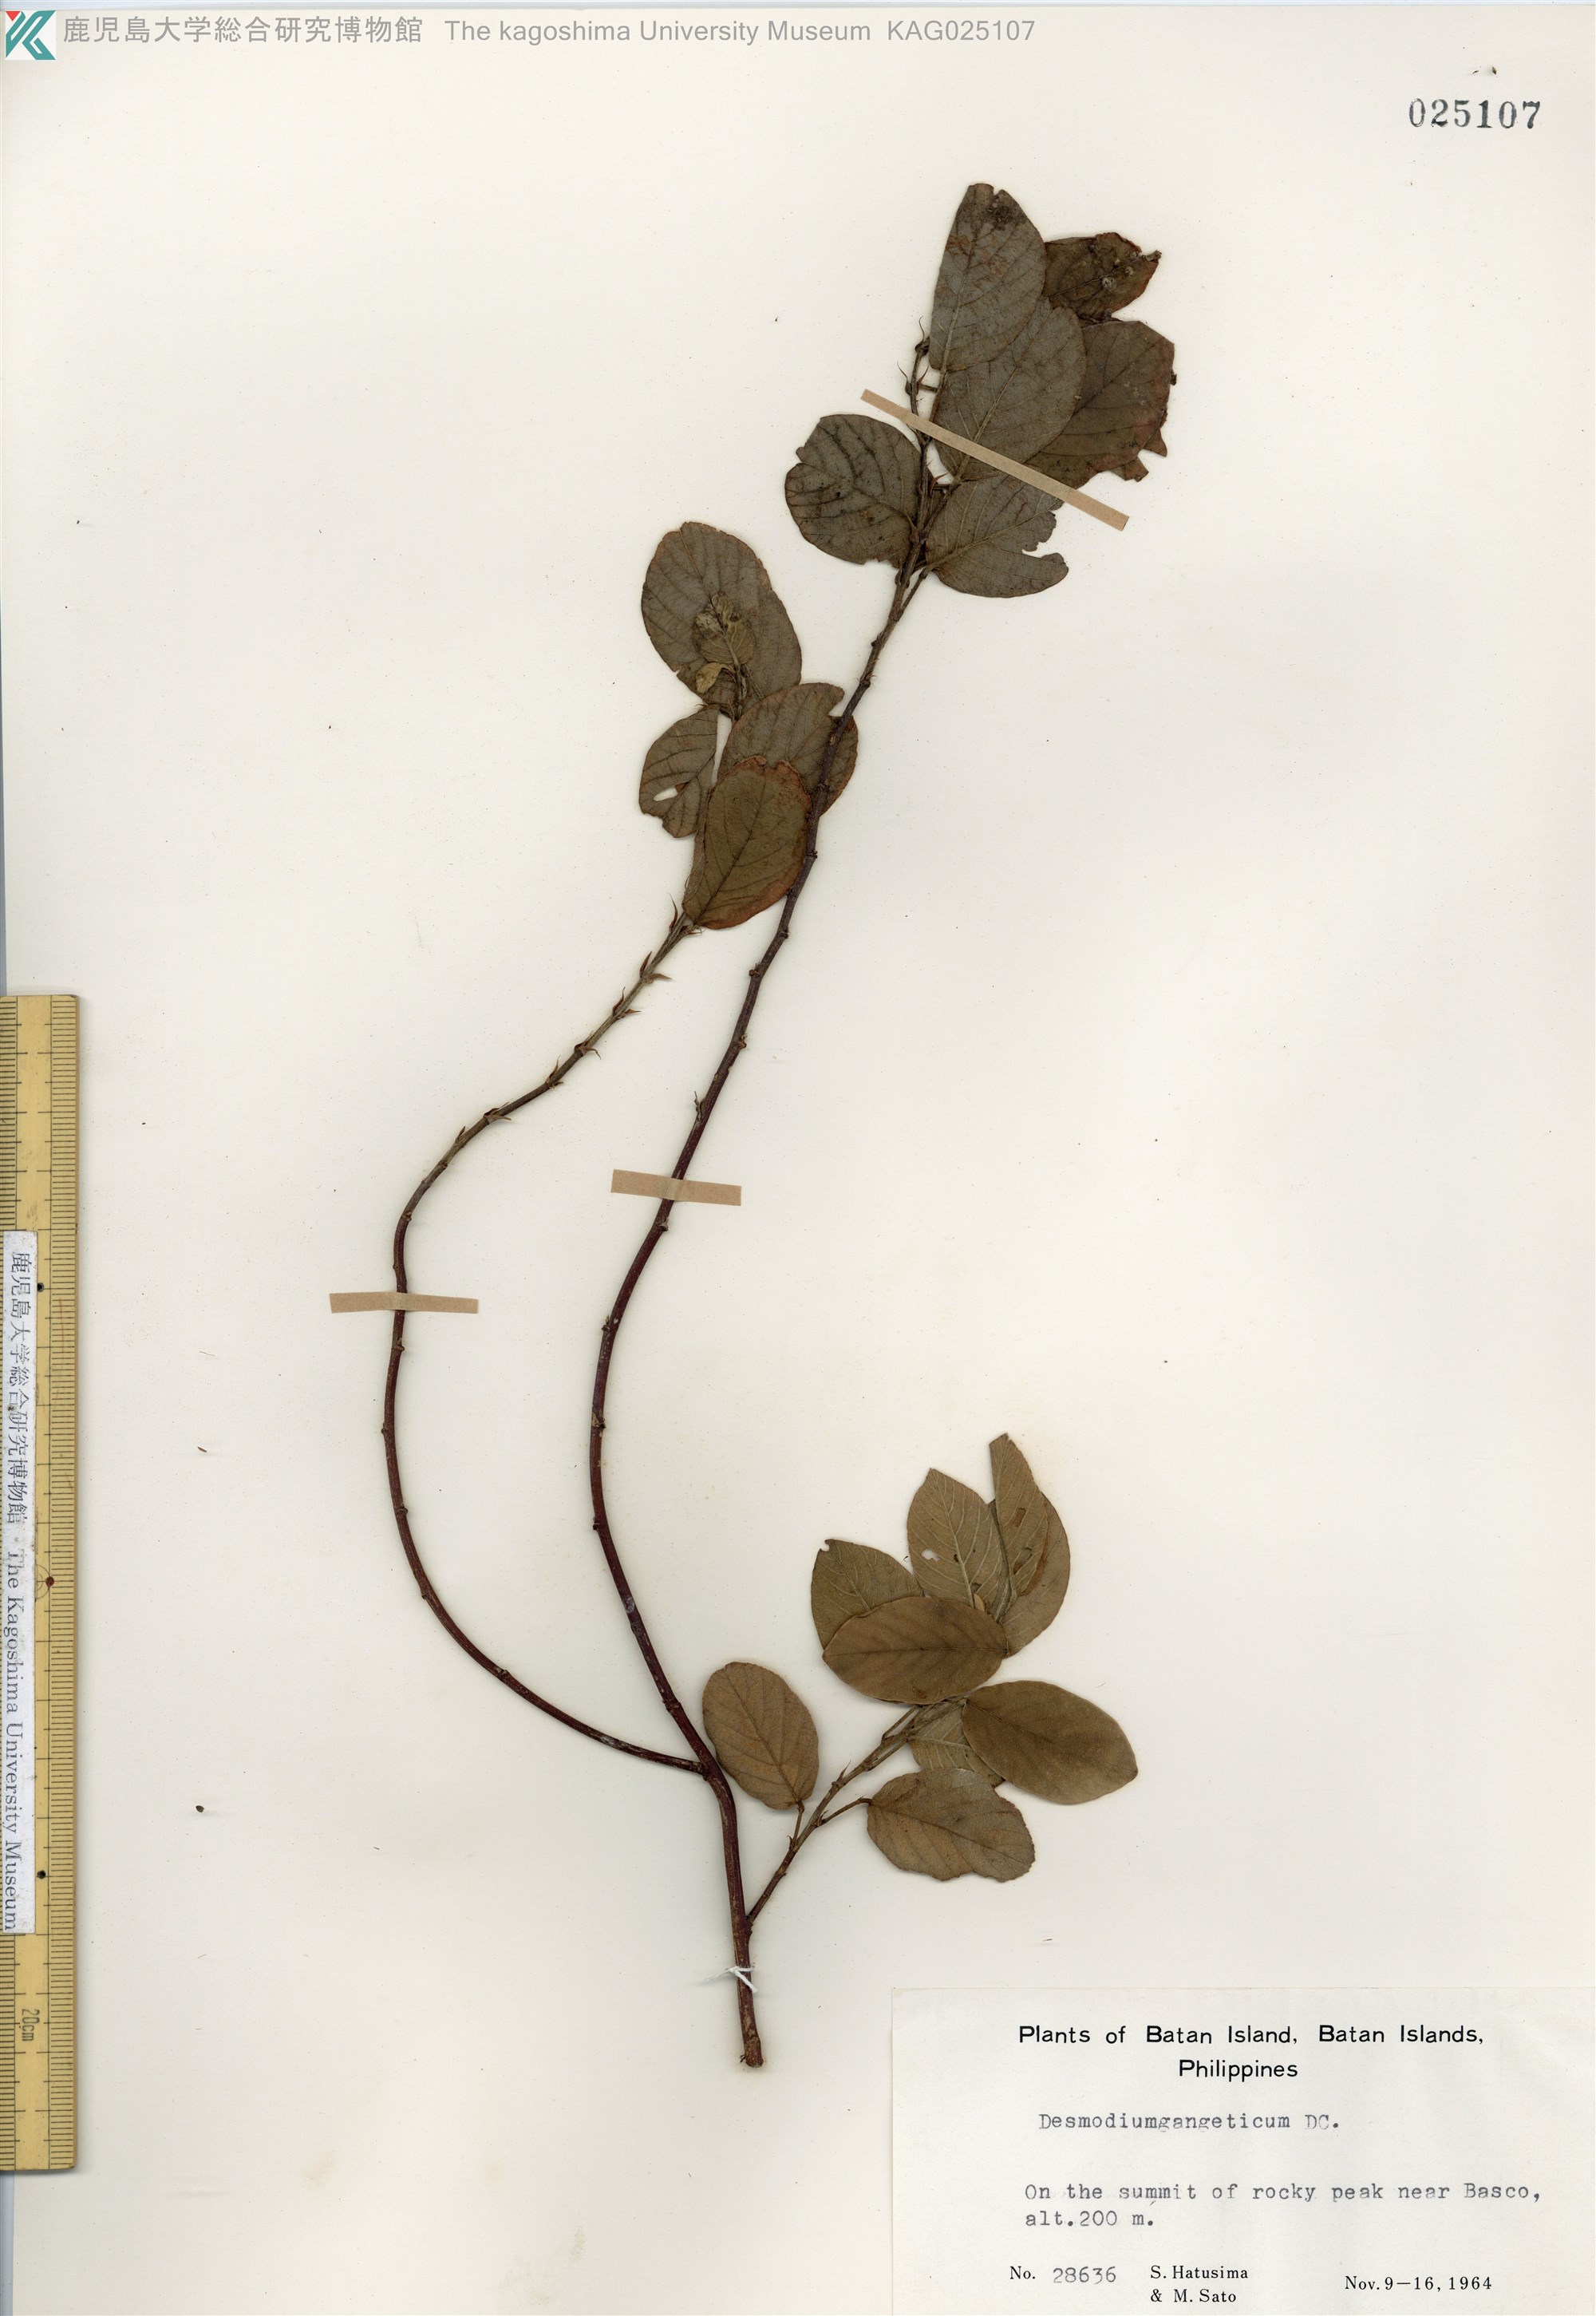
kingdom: Plantae
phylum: Tracheophyta
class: Magnoliopsida
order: Fabales
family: Fabaceae
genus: Pleurolobus
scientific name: Pleurolobus gangeticus
